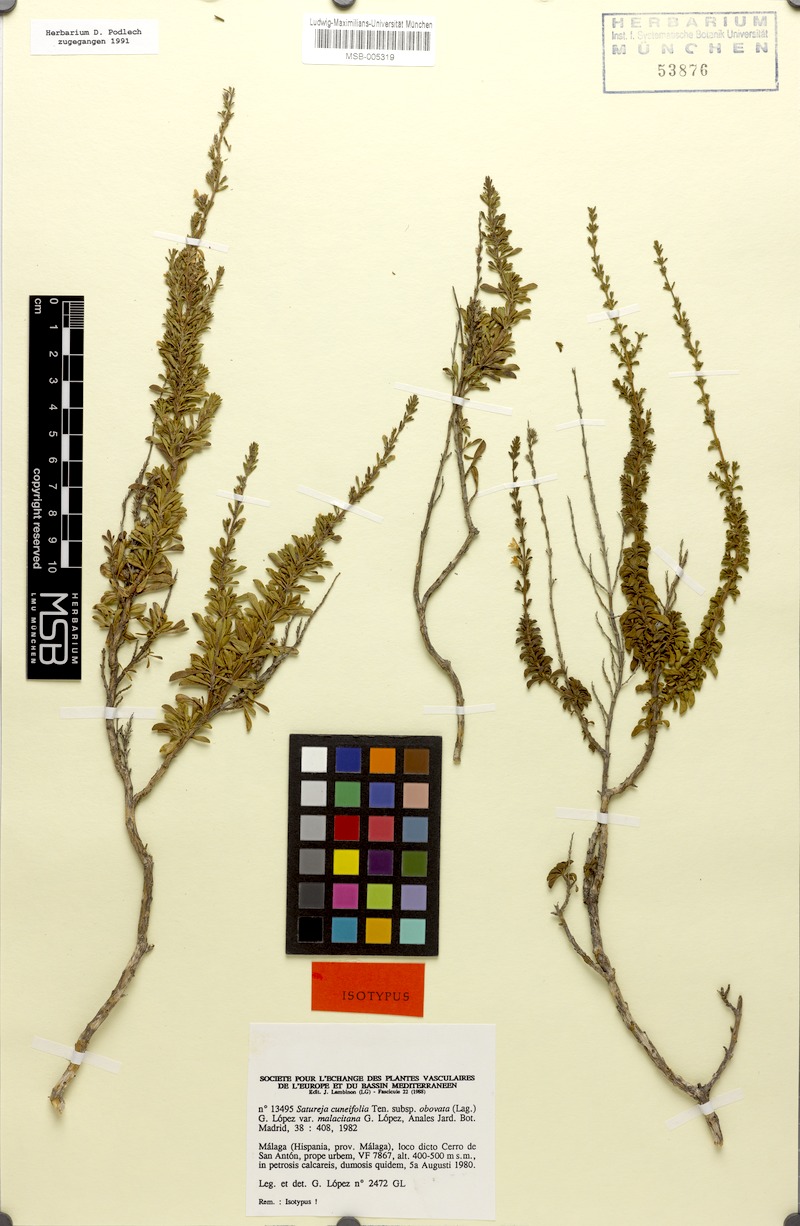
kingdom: Plantae
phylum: Tracheophyta
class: Magnoliopsida
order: Lamiales
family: Lamiaceae
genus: Satureja
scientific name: Satureja intricata
